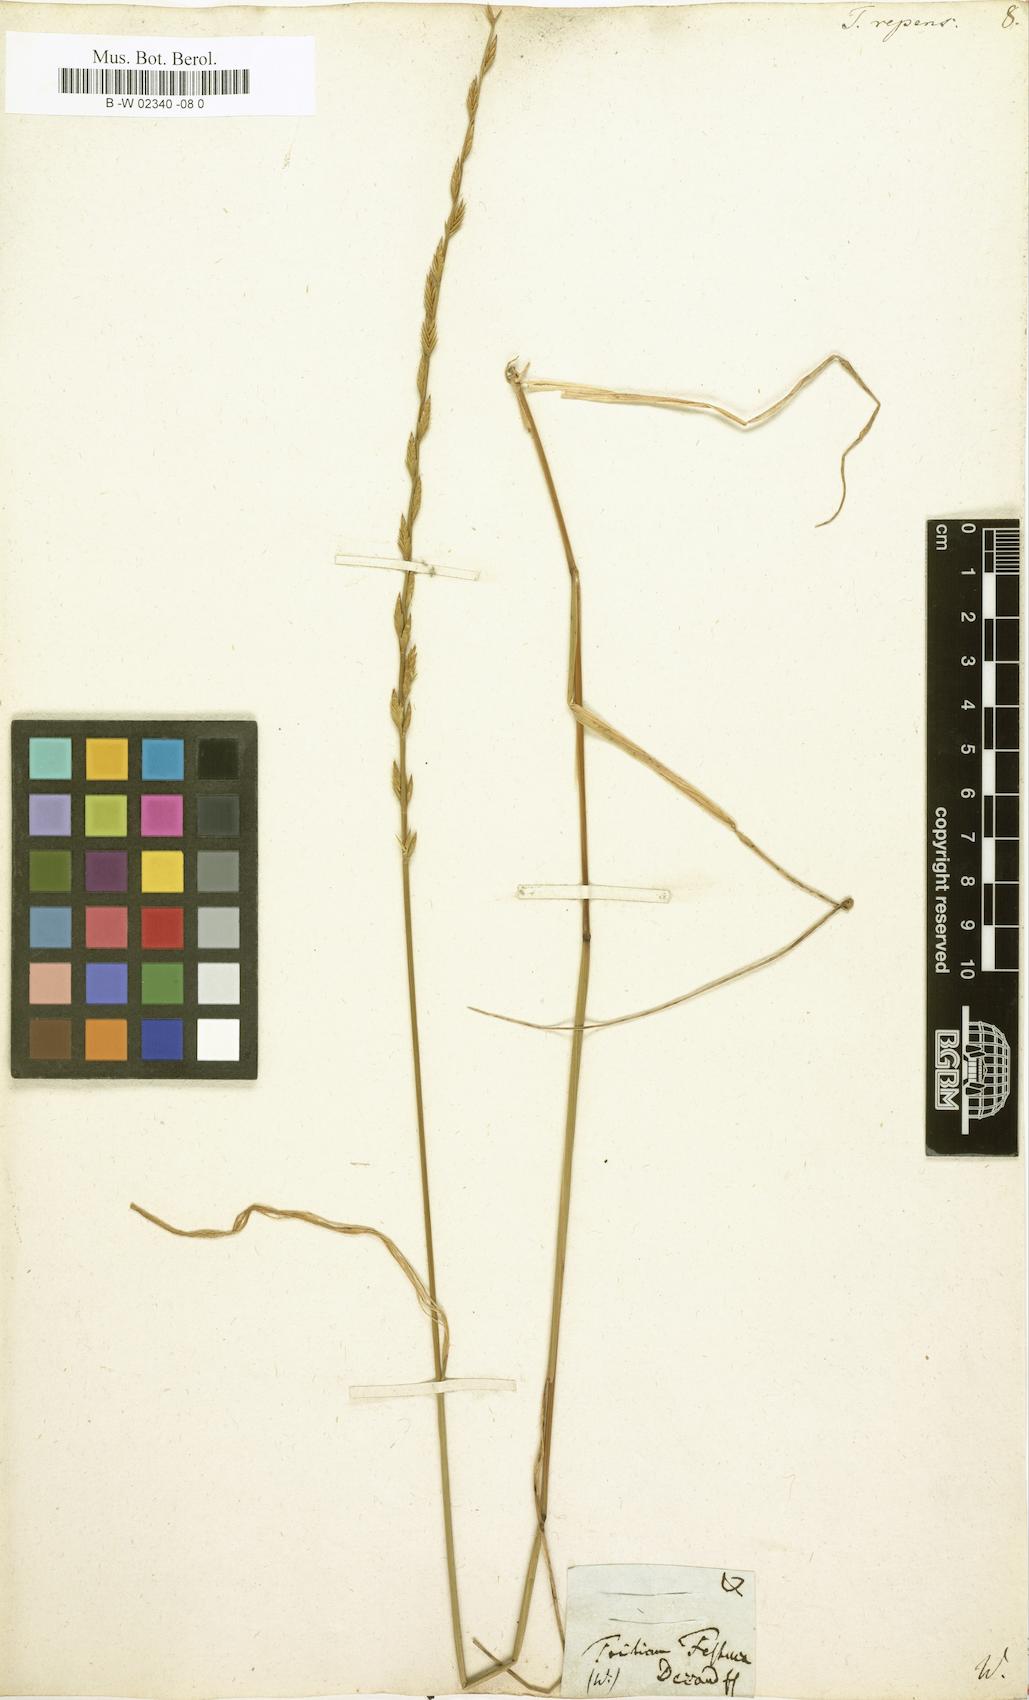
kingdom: Plantae
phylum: Tracheophyta
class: Liliopsida
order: Poales
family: Poaceae
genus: Elymus
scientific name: Elymus repens
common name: Quackgrass
